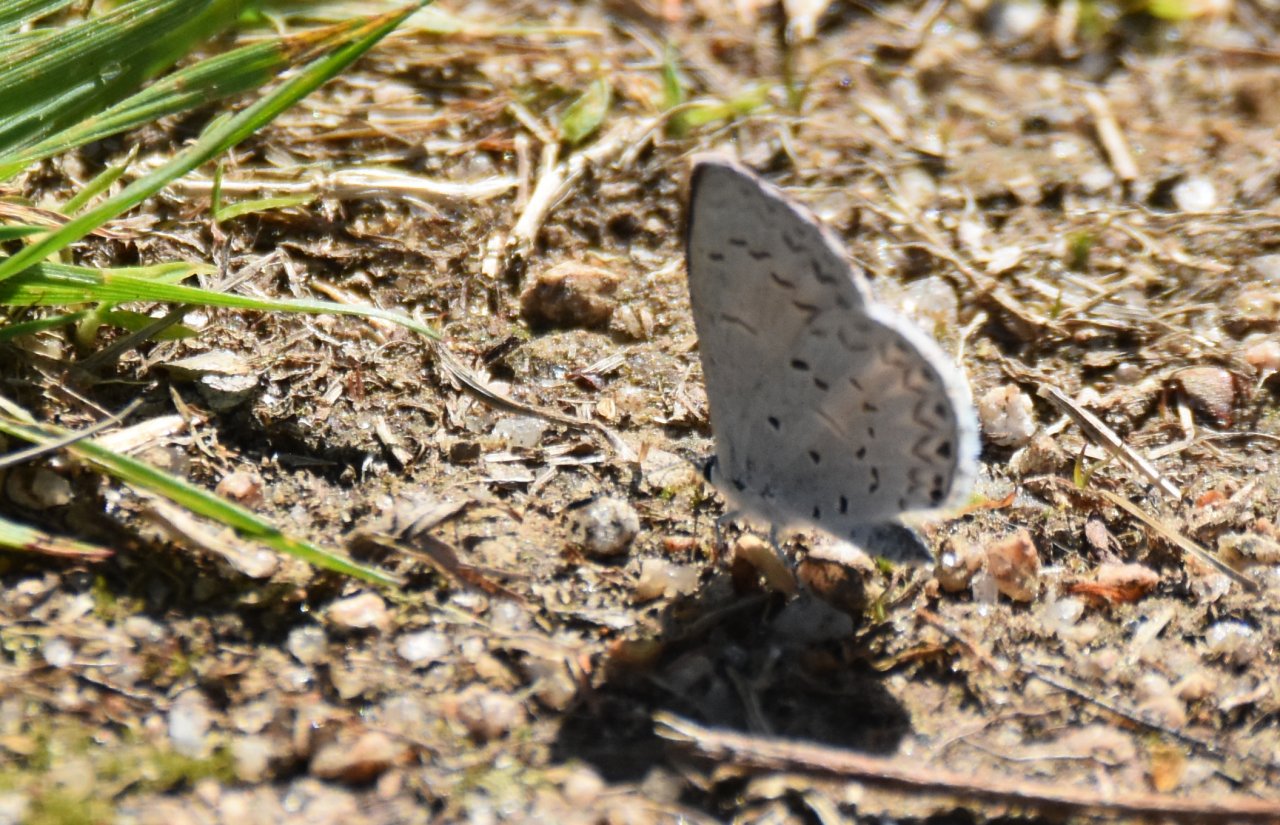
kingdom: Animalia
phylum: Arthropoda
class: Insecta
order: Lepidoptera
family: Lycaenidae
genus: Celastrina
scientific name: Celastrina ladon
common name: Spring Azure
